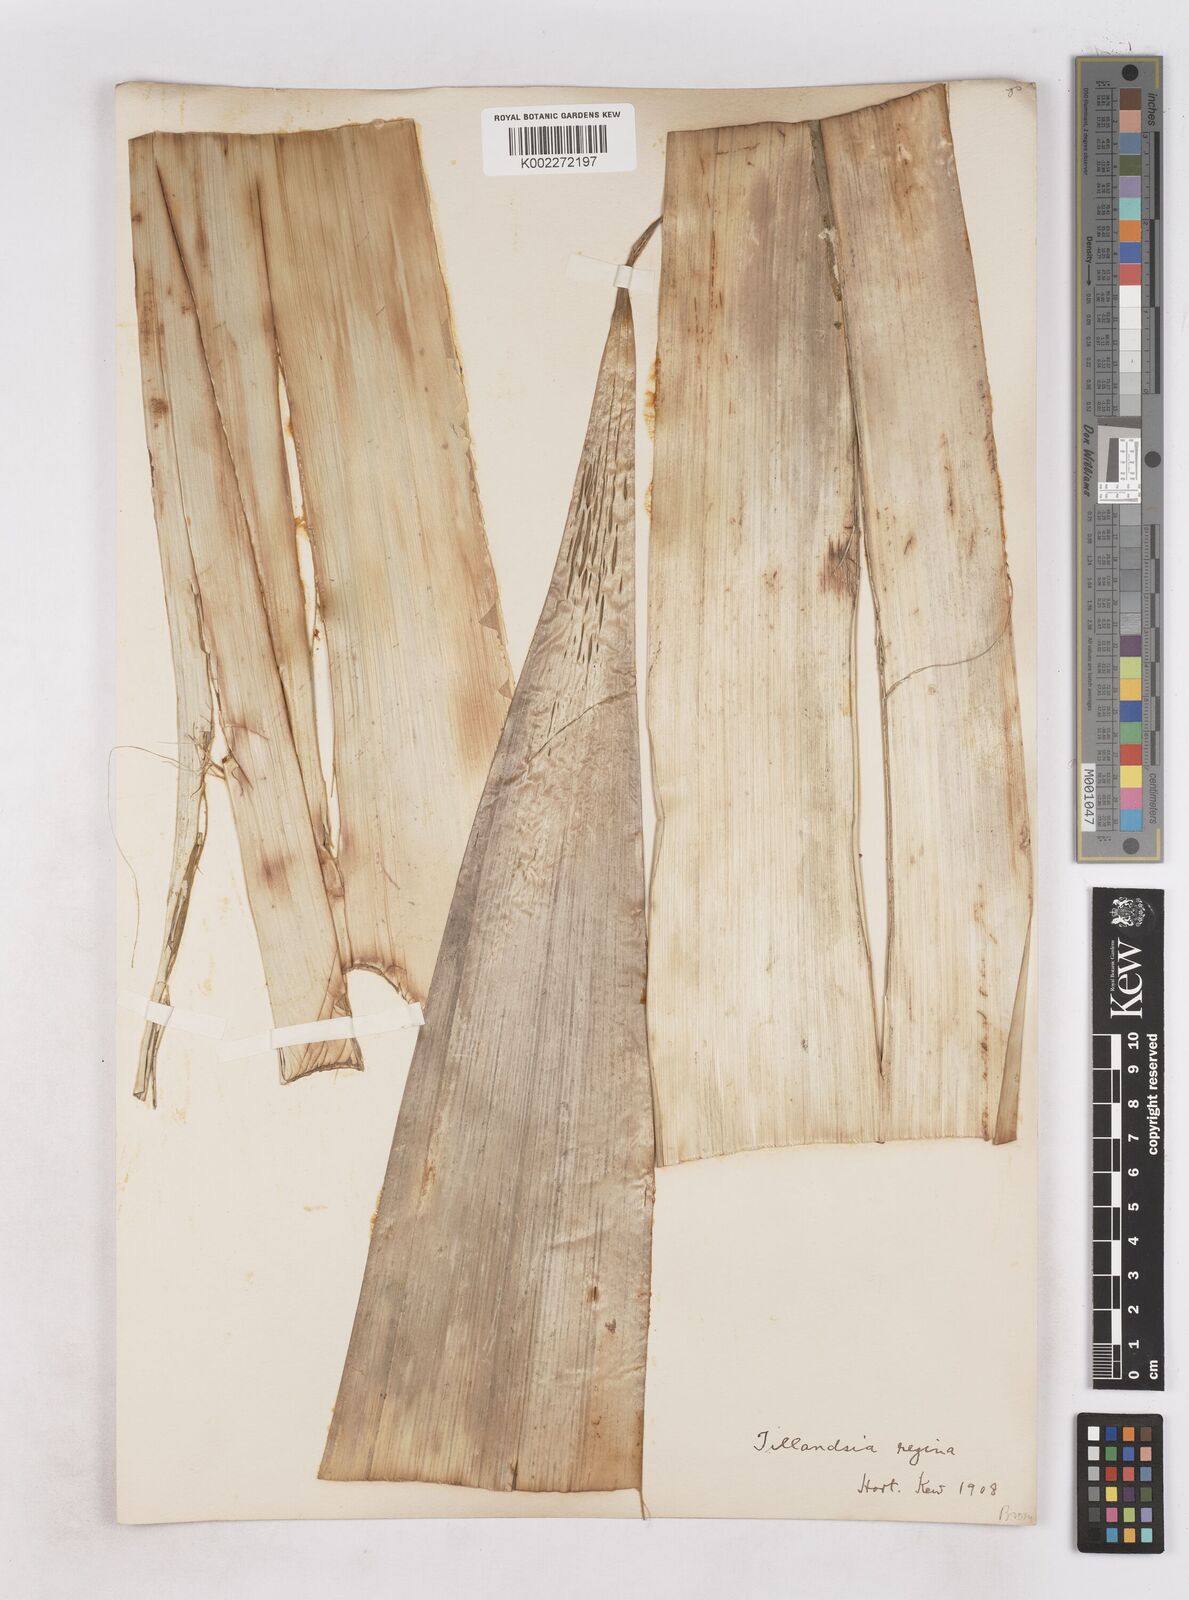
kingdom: Plantae
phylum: Tracheophyta
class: Liliopsida
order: Poales
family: Bromeliaceae
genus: Alcantarea
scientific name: Alcantarea regina
